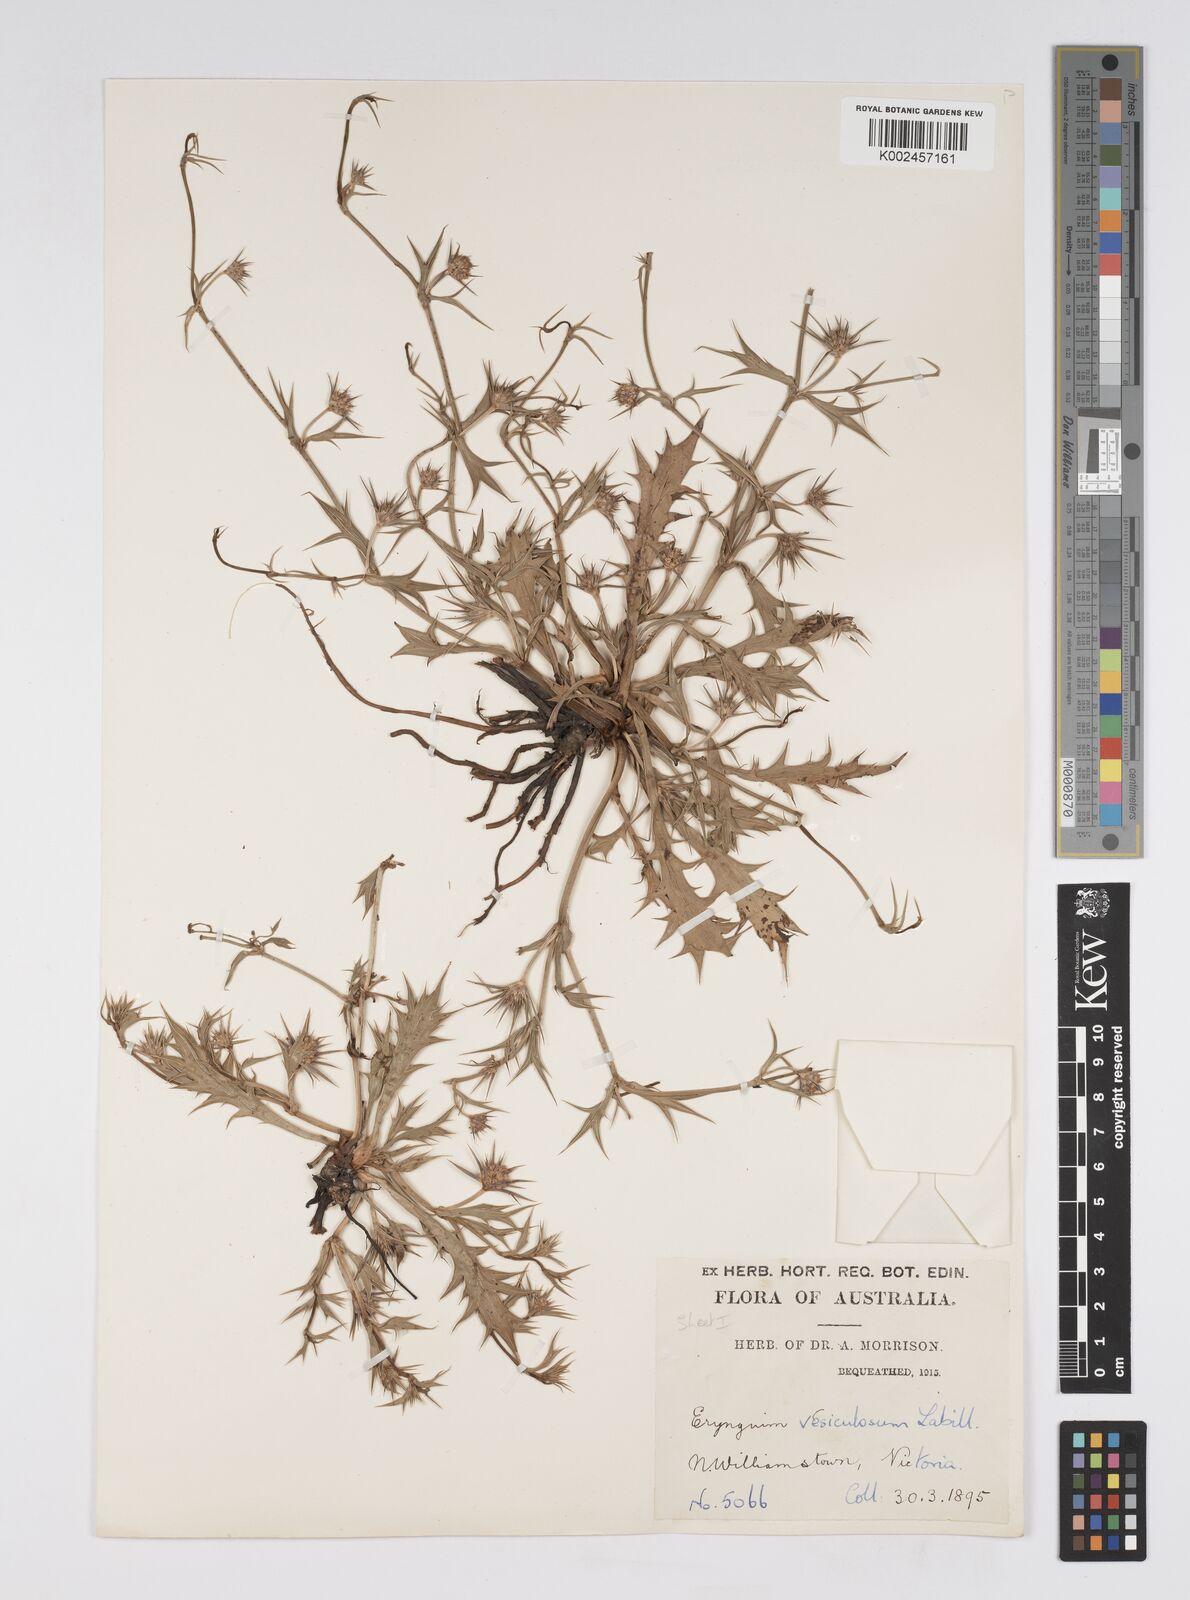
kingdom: Plantae
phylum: Tracheophyta
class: Magnoliopsida
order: Apiales
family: Apiaceae
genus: Eryngium
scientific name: Eryngium vesiculosum
